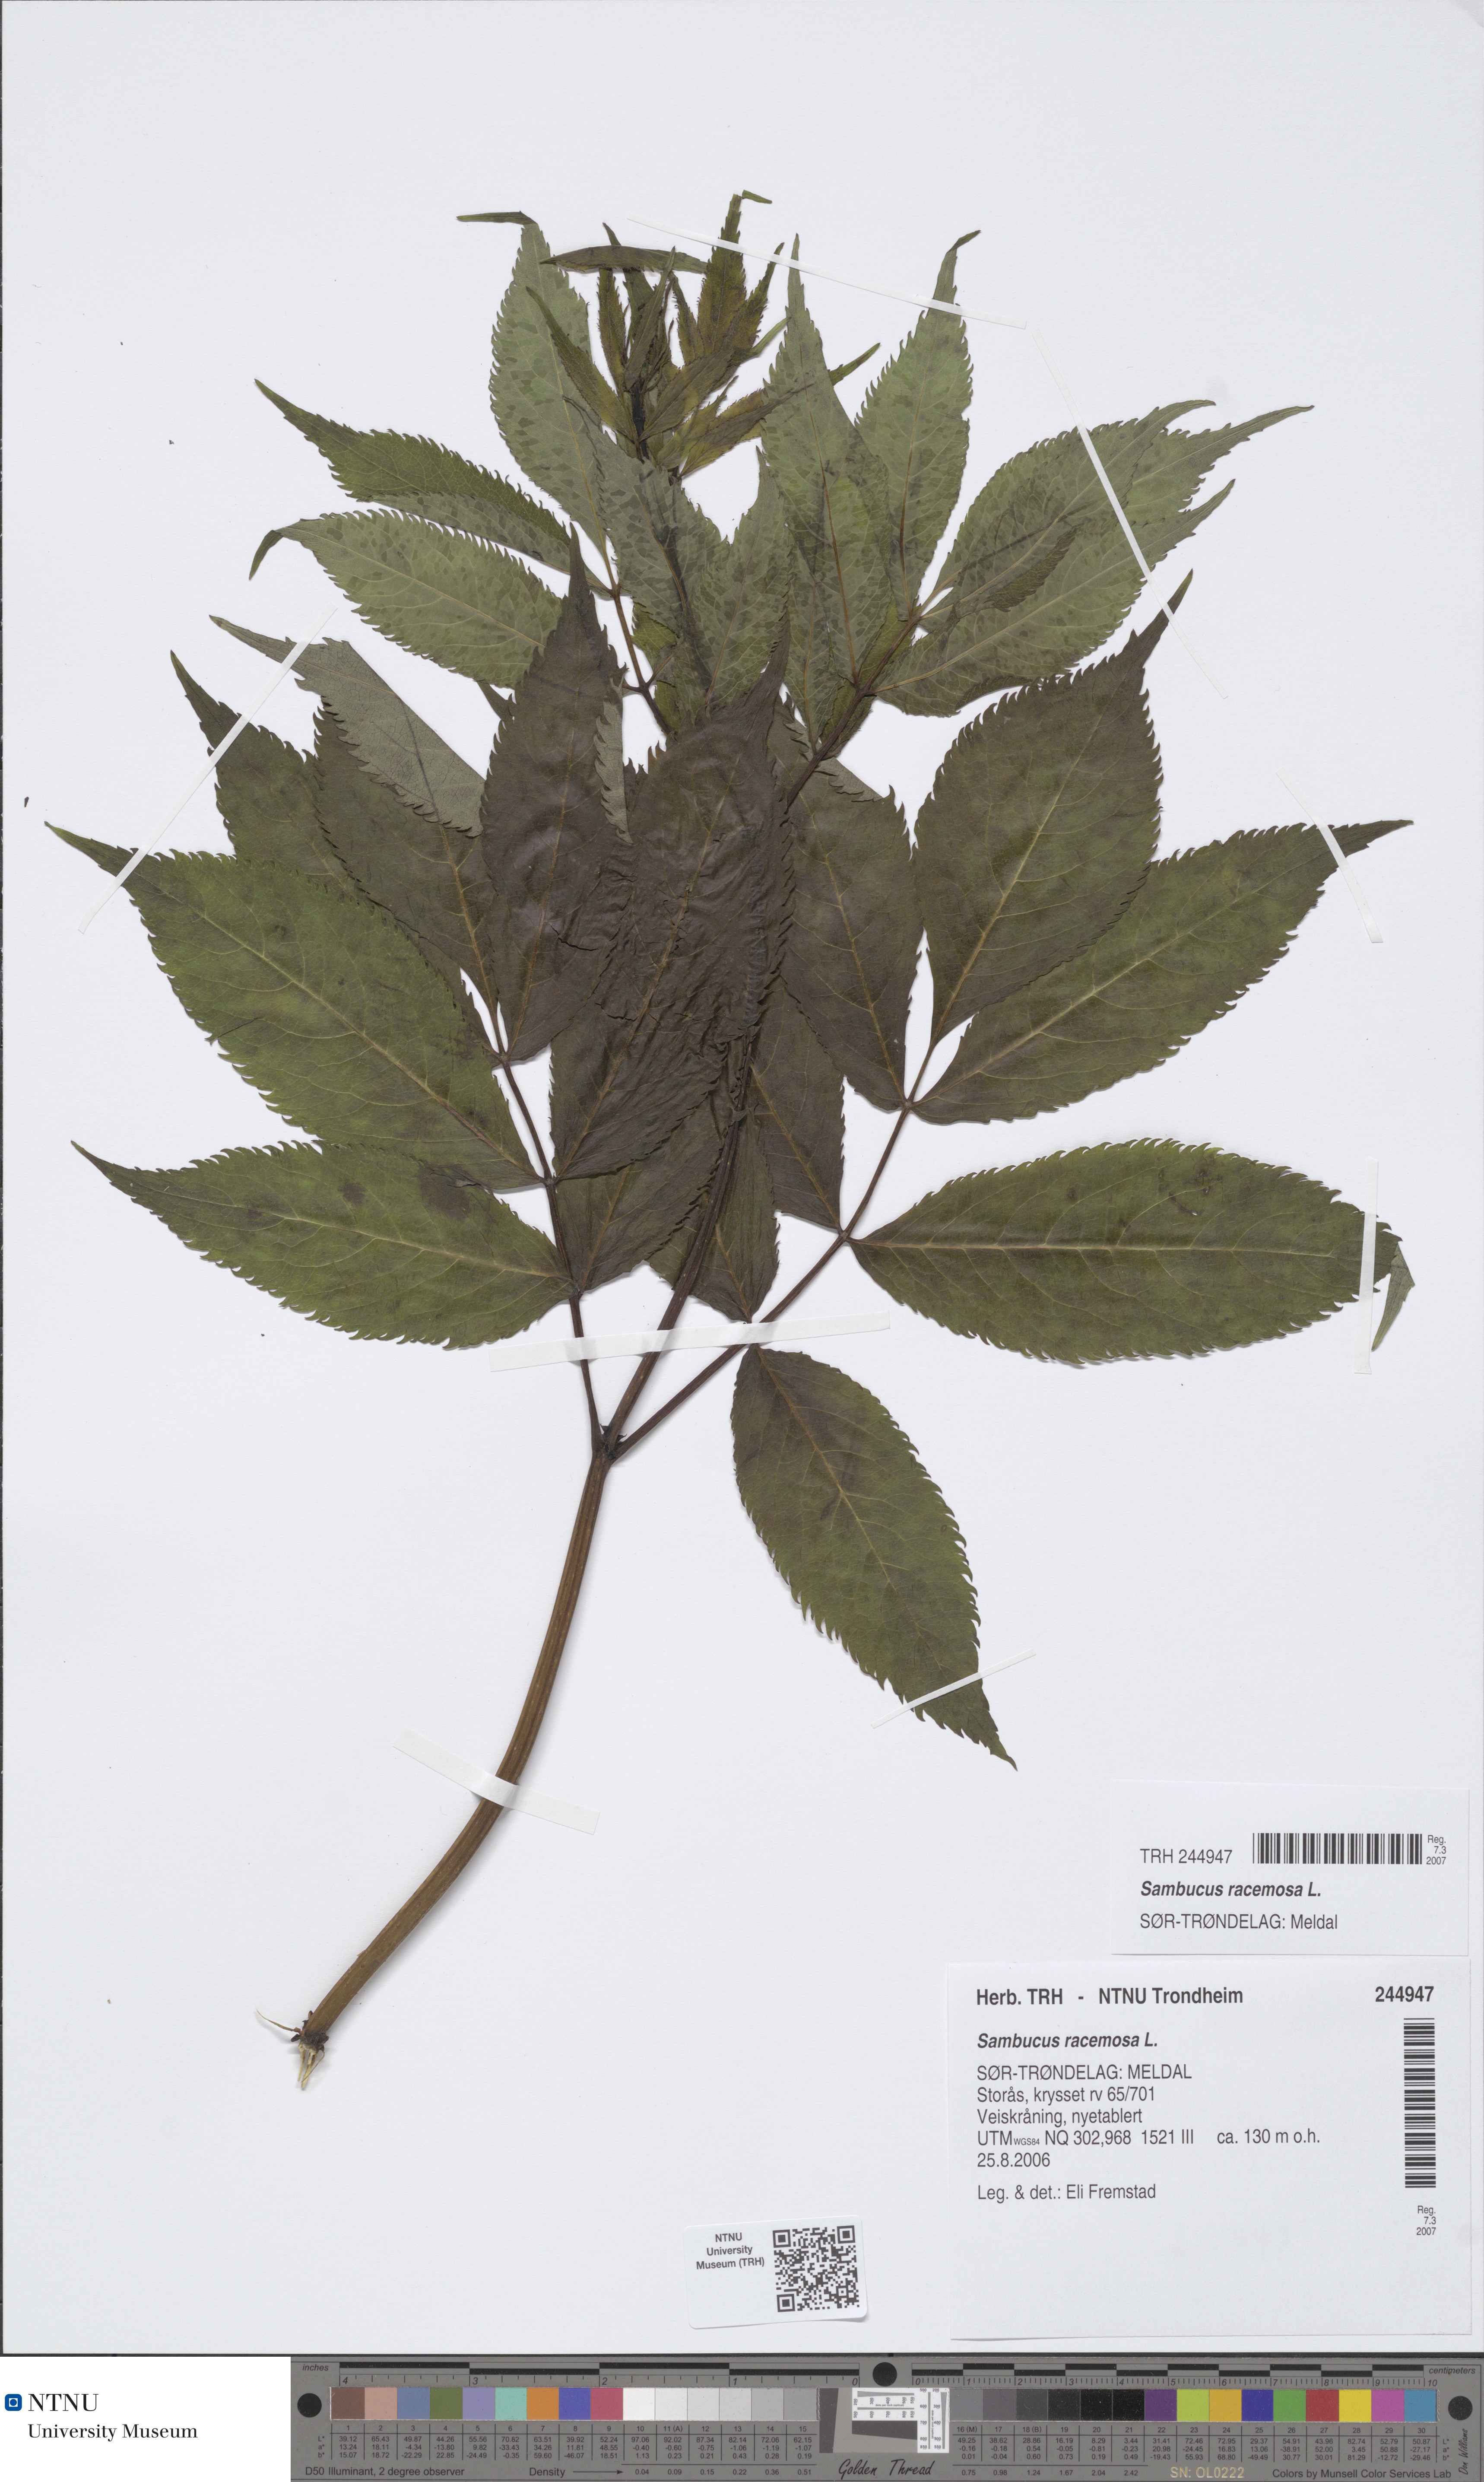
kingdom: Plantae
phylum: Tracheophyta
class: Magnoliopsida
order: Dipsacales
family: Viburnaceae
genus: Sambucus
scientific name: Sambucus racemosa
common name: Red-berried elder
